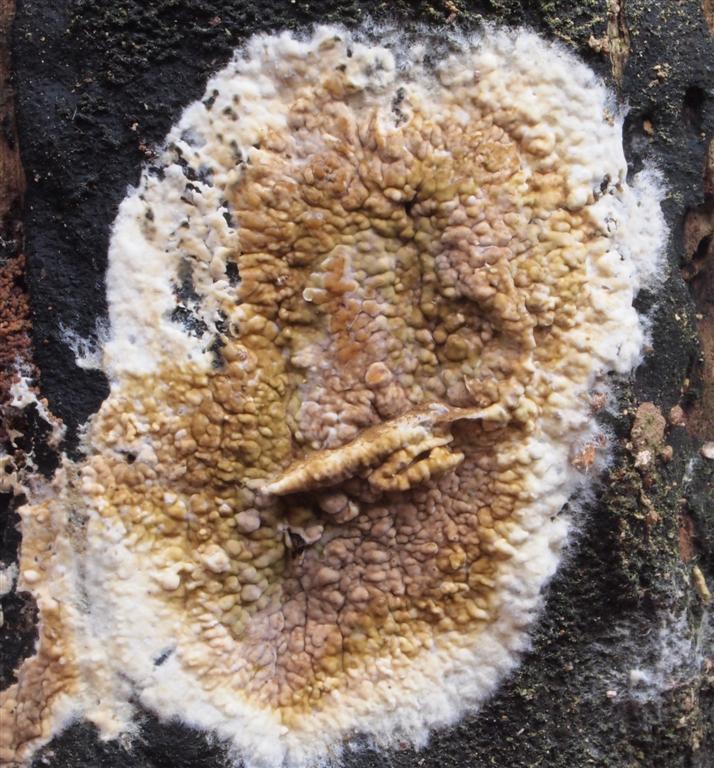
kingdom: Fungi
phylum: Basidiomycota
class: Agaricomycetes
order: Boletales
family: Coniophoraceae
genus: Coniophora
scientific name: Coniophora puteana
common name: gul tømmersvamp
